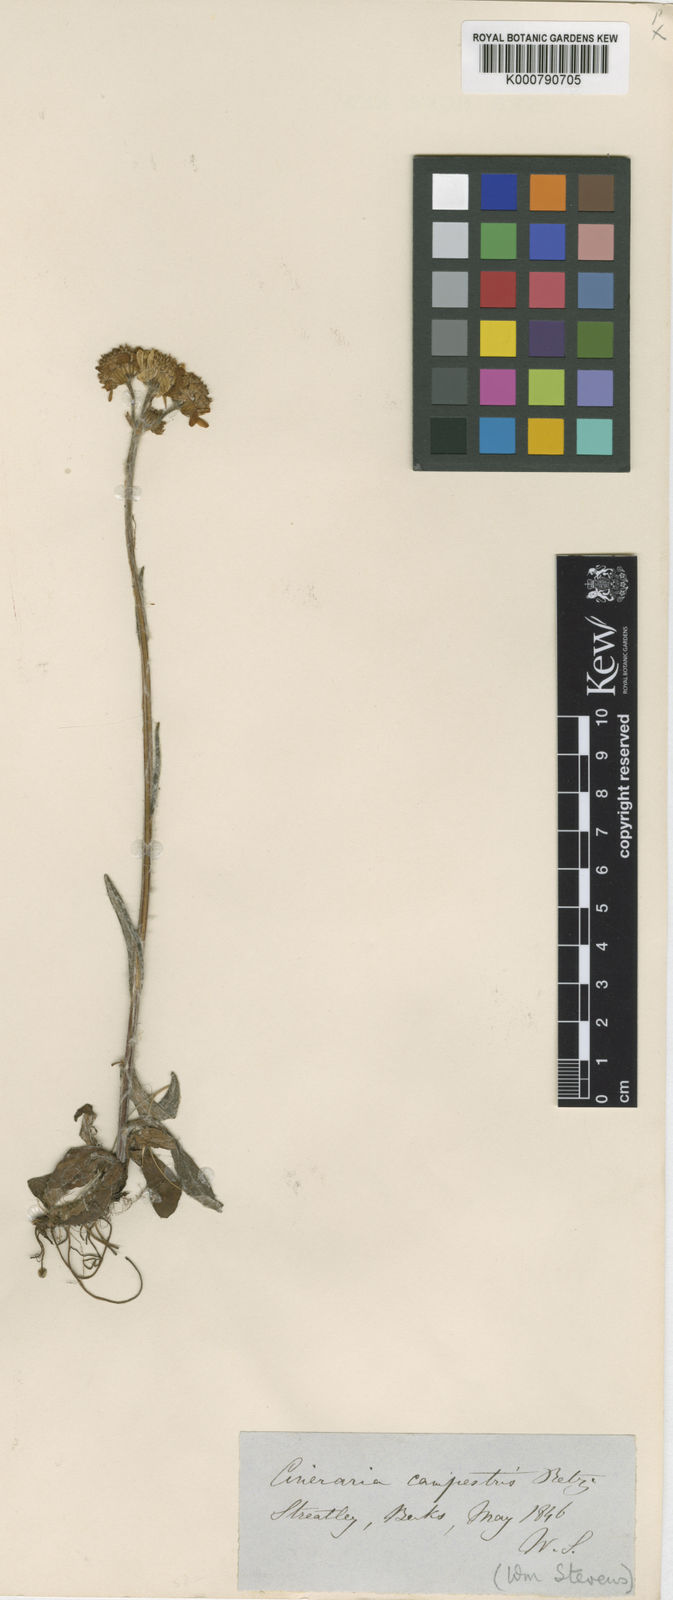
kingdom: Plantae
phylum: Tracheophyta
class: Magnoliopsida
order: Asterales
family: Asteraceae
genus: Tephroseris
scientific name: Tephroseris integrifolia
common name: Field fleawort
